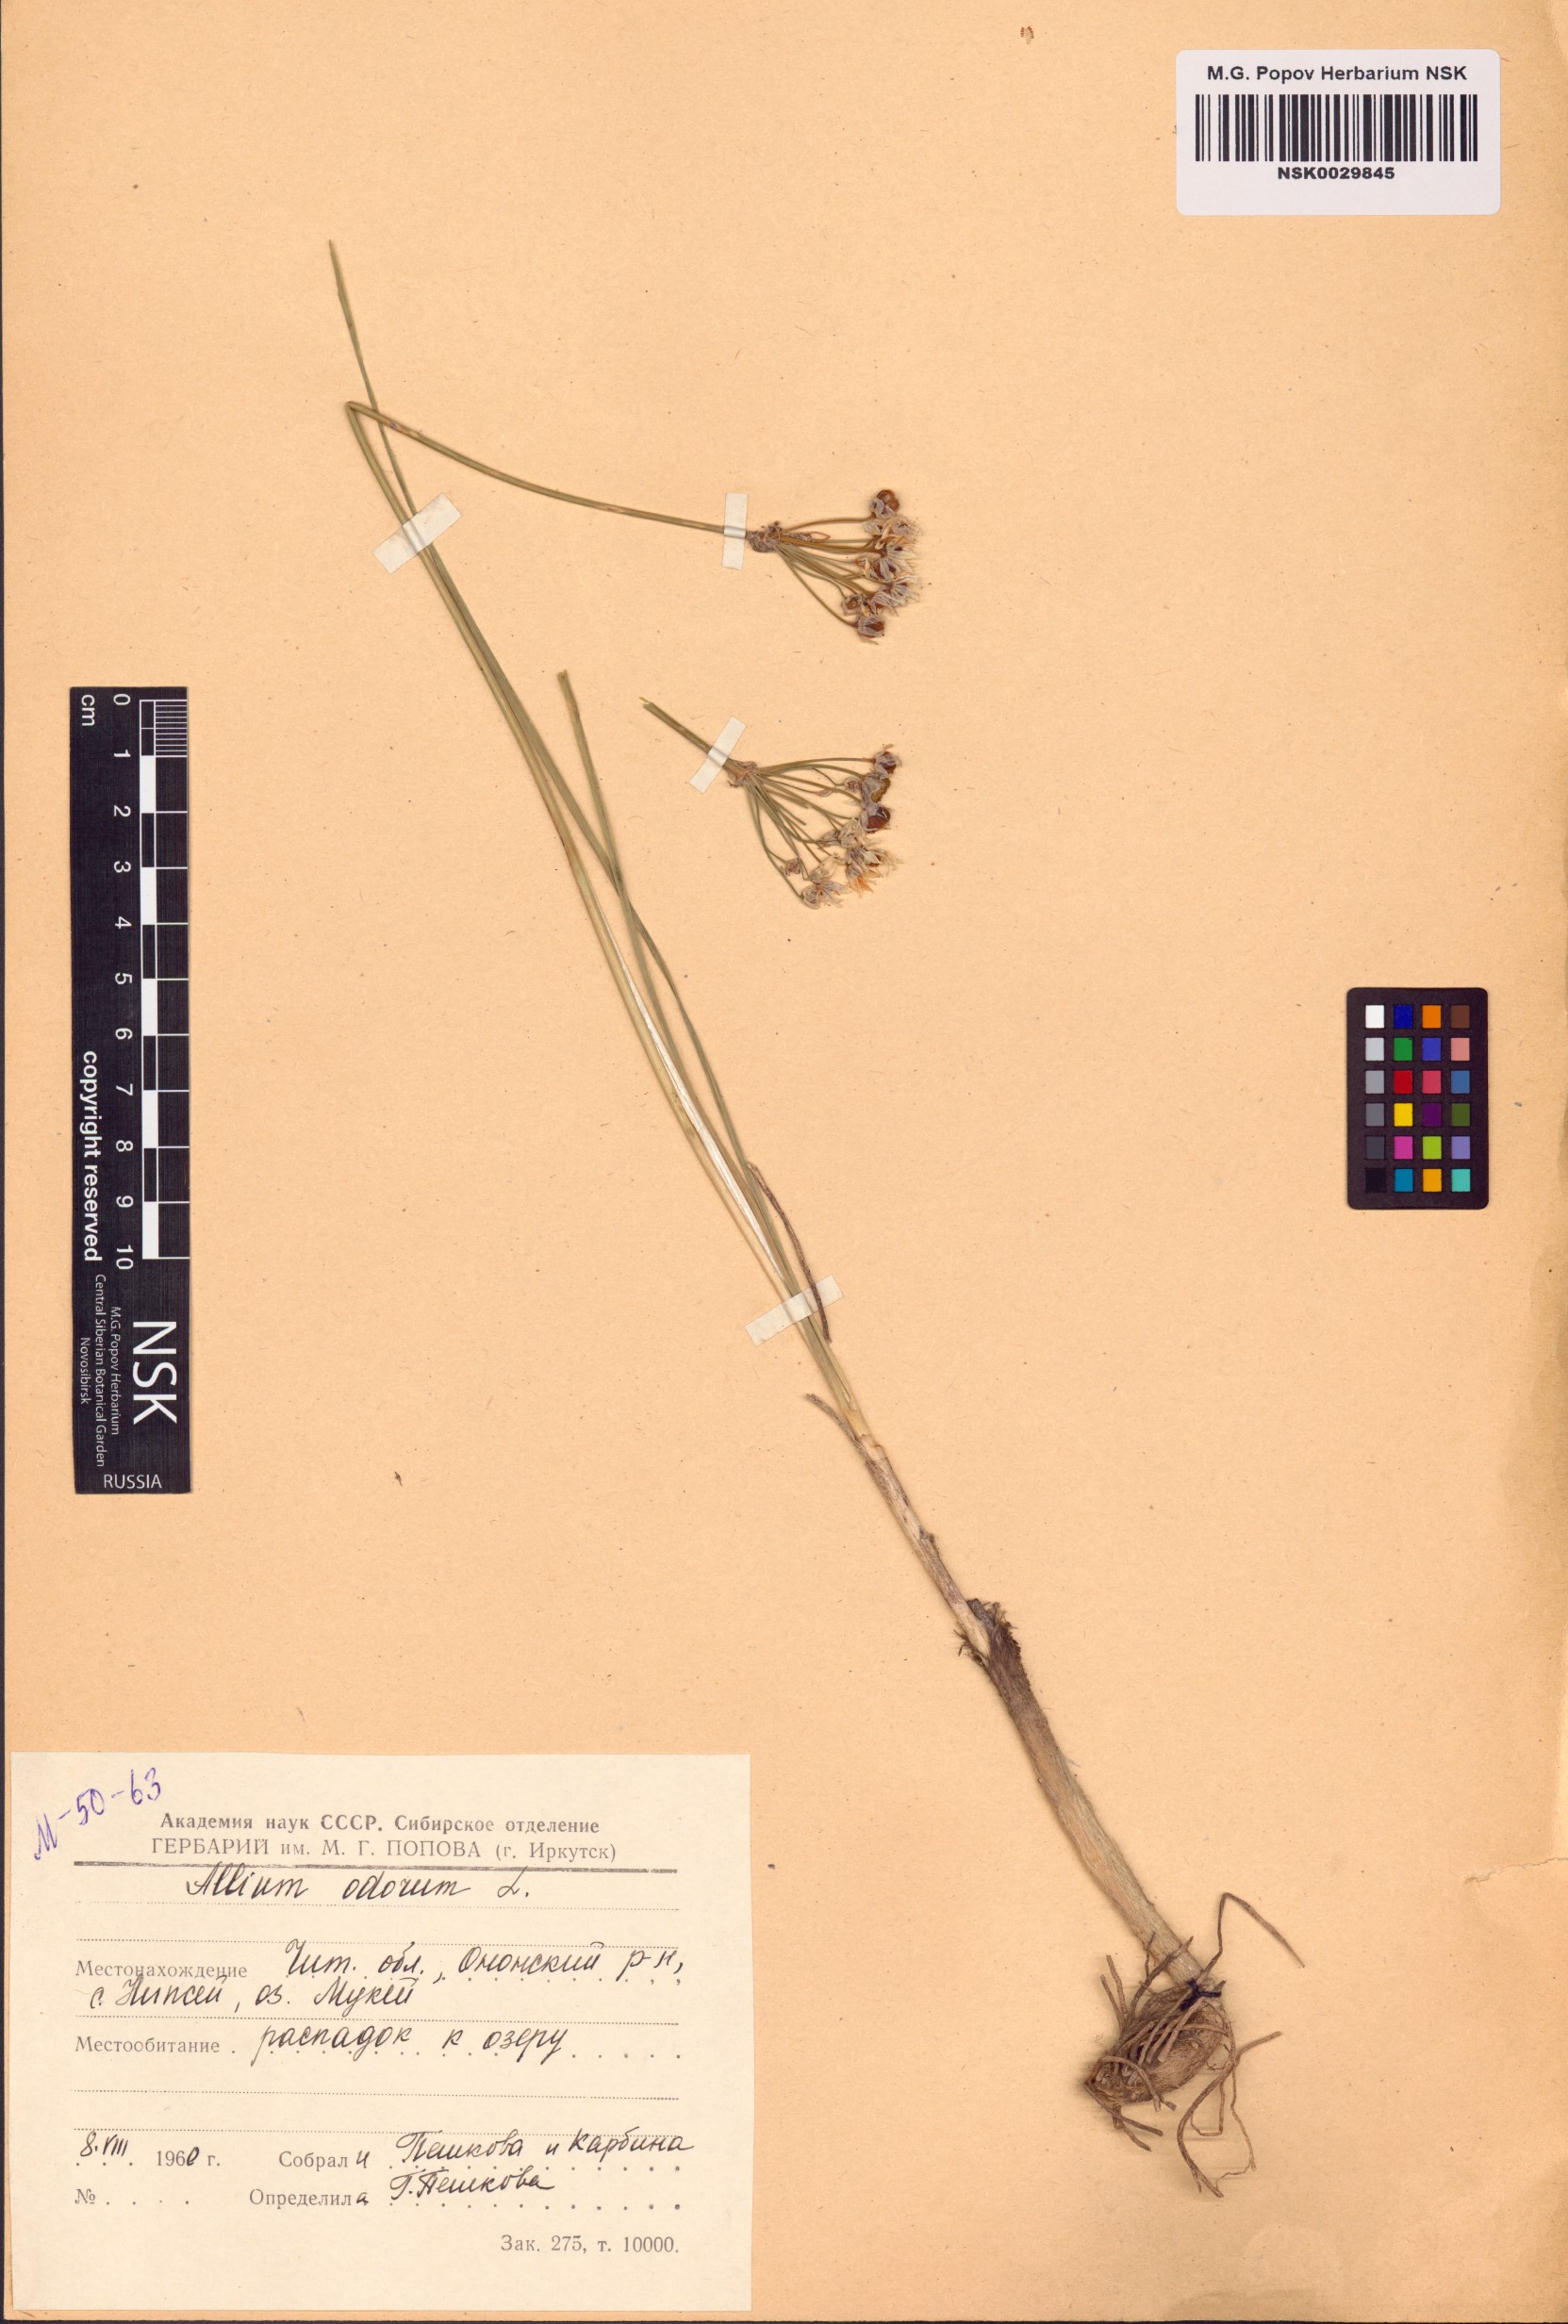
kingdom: Plantae
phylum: Tracheophyta
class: Liliopsida
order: Asparagales
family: Amaryllidaceae
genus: Allium
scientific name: Allium ramosum
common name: Fragrant garlic
